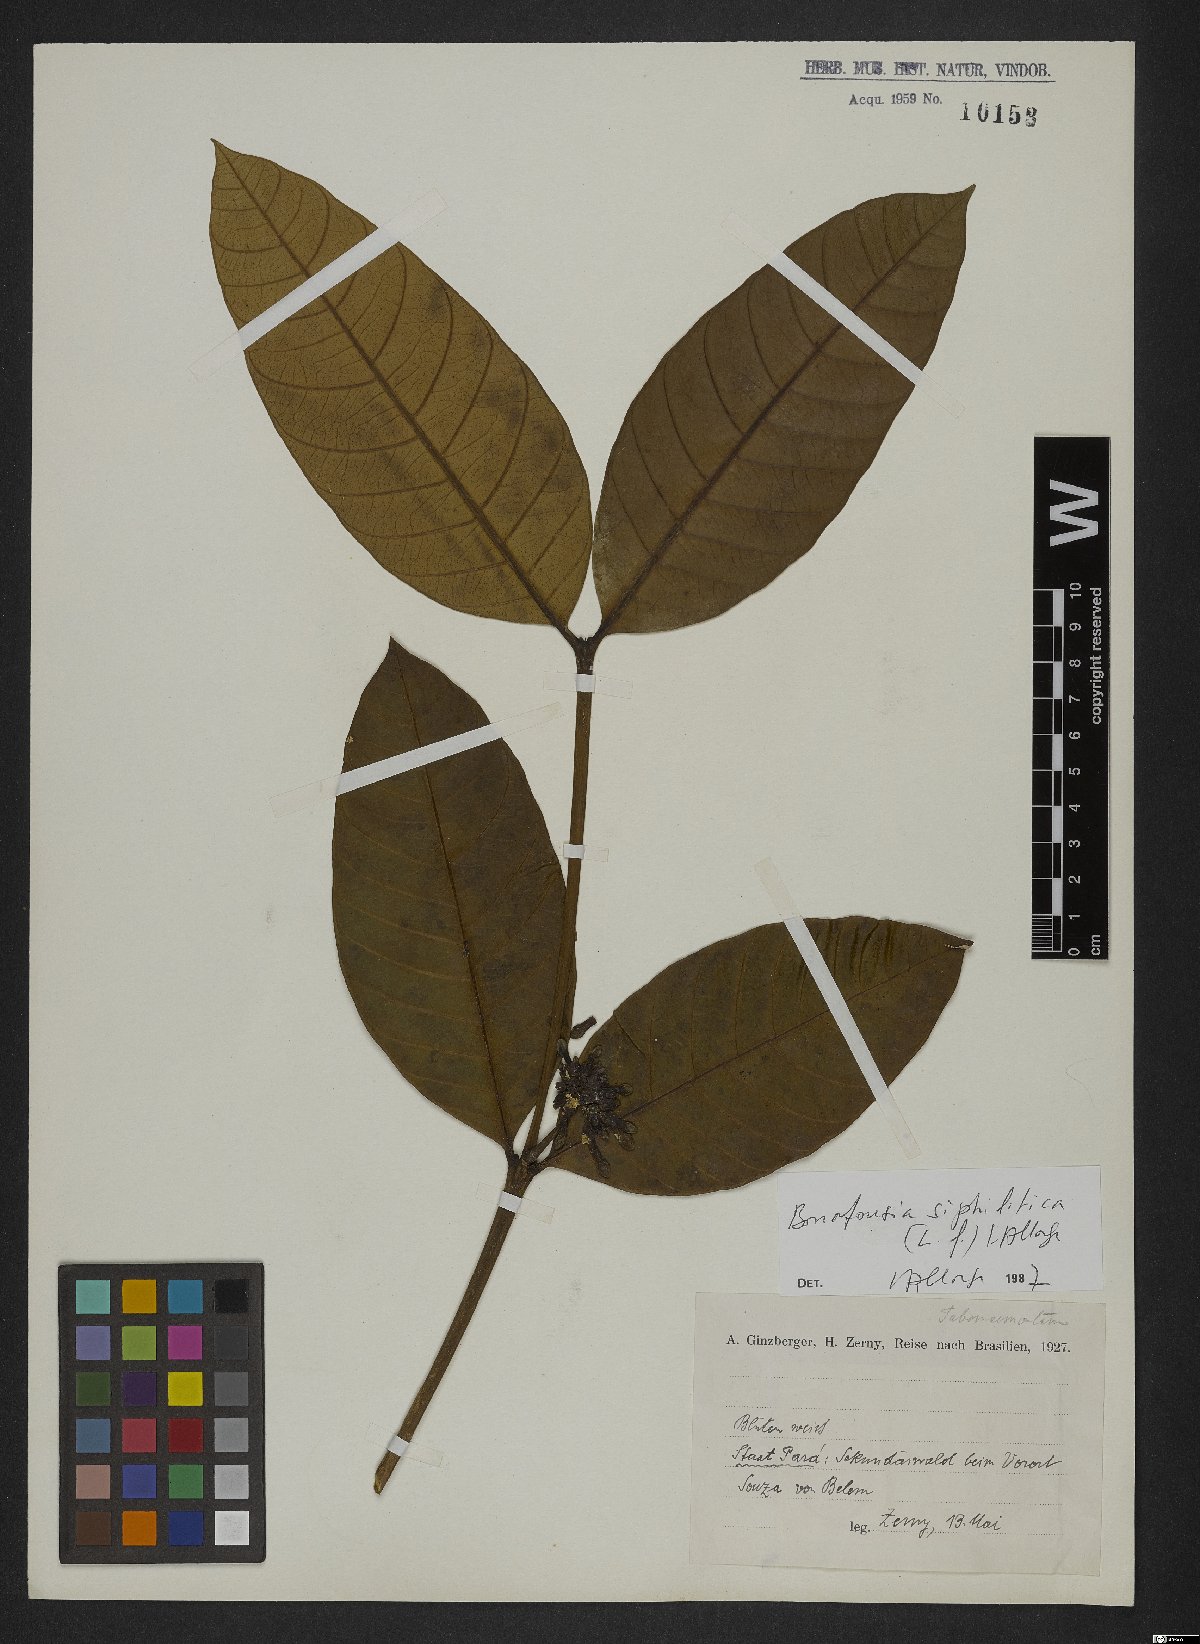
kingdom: Plantae
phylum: Tracheophyta
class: Magnoliopsida
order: Gentianales
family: Apocynaceae
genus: Tabernaemontana
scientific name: Tabernaemontana siphilitica
